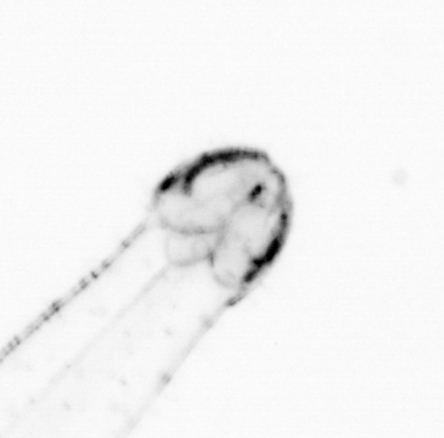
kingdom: Animalia
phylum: Chaetognatha
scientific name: Chaetognatha
